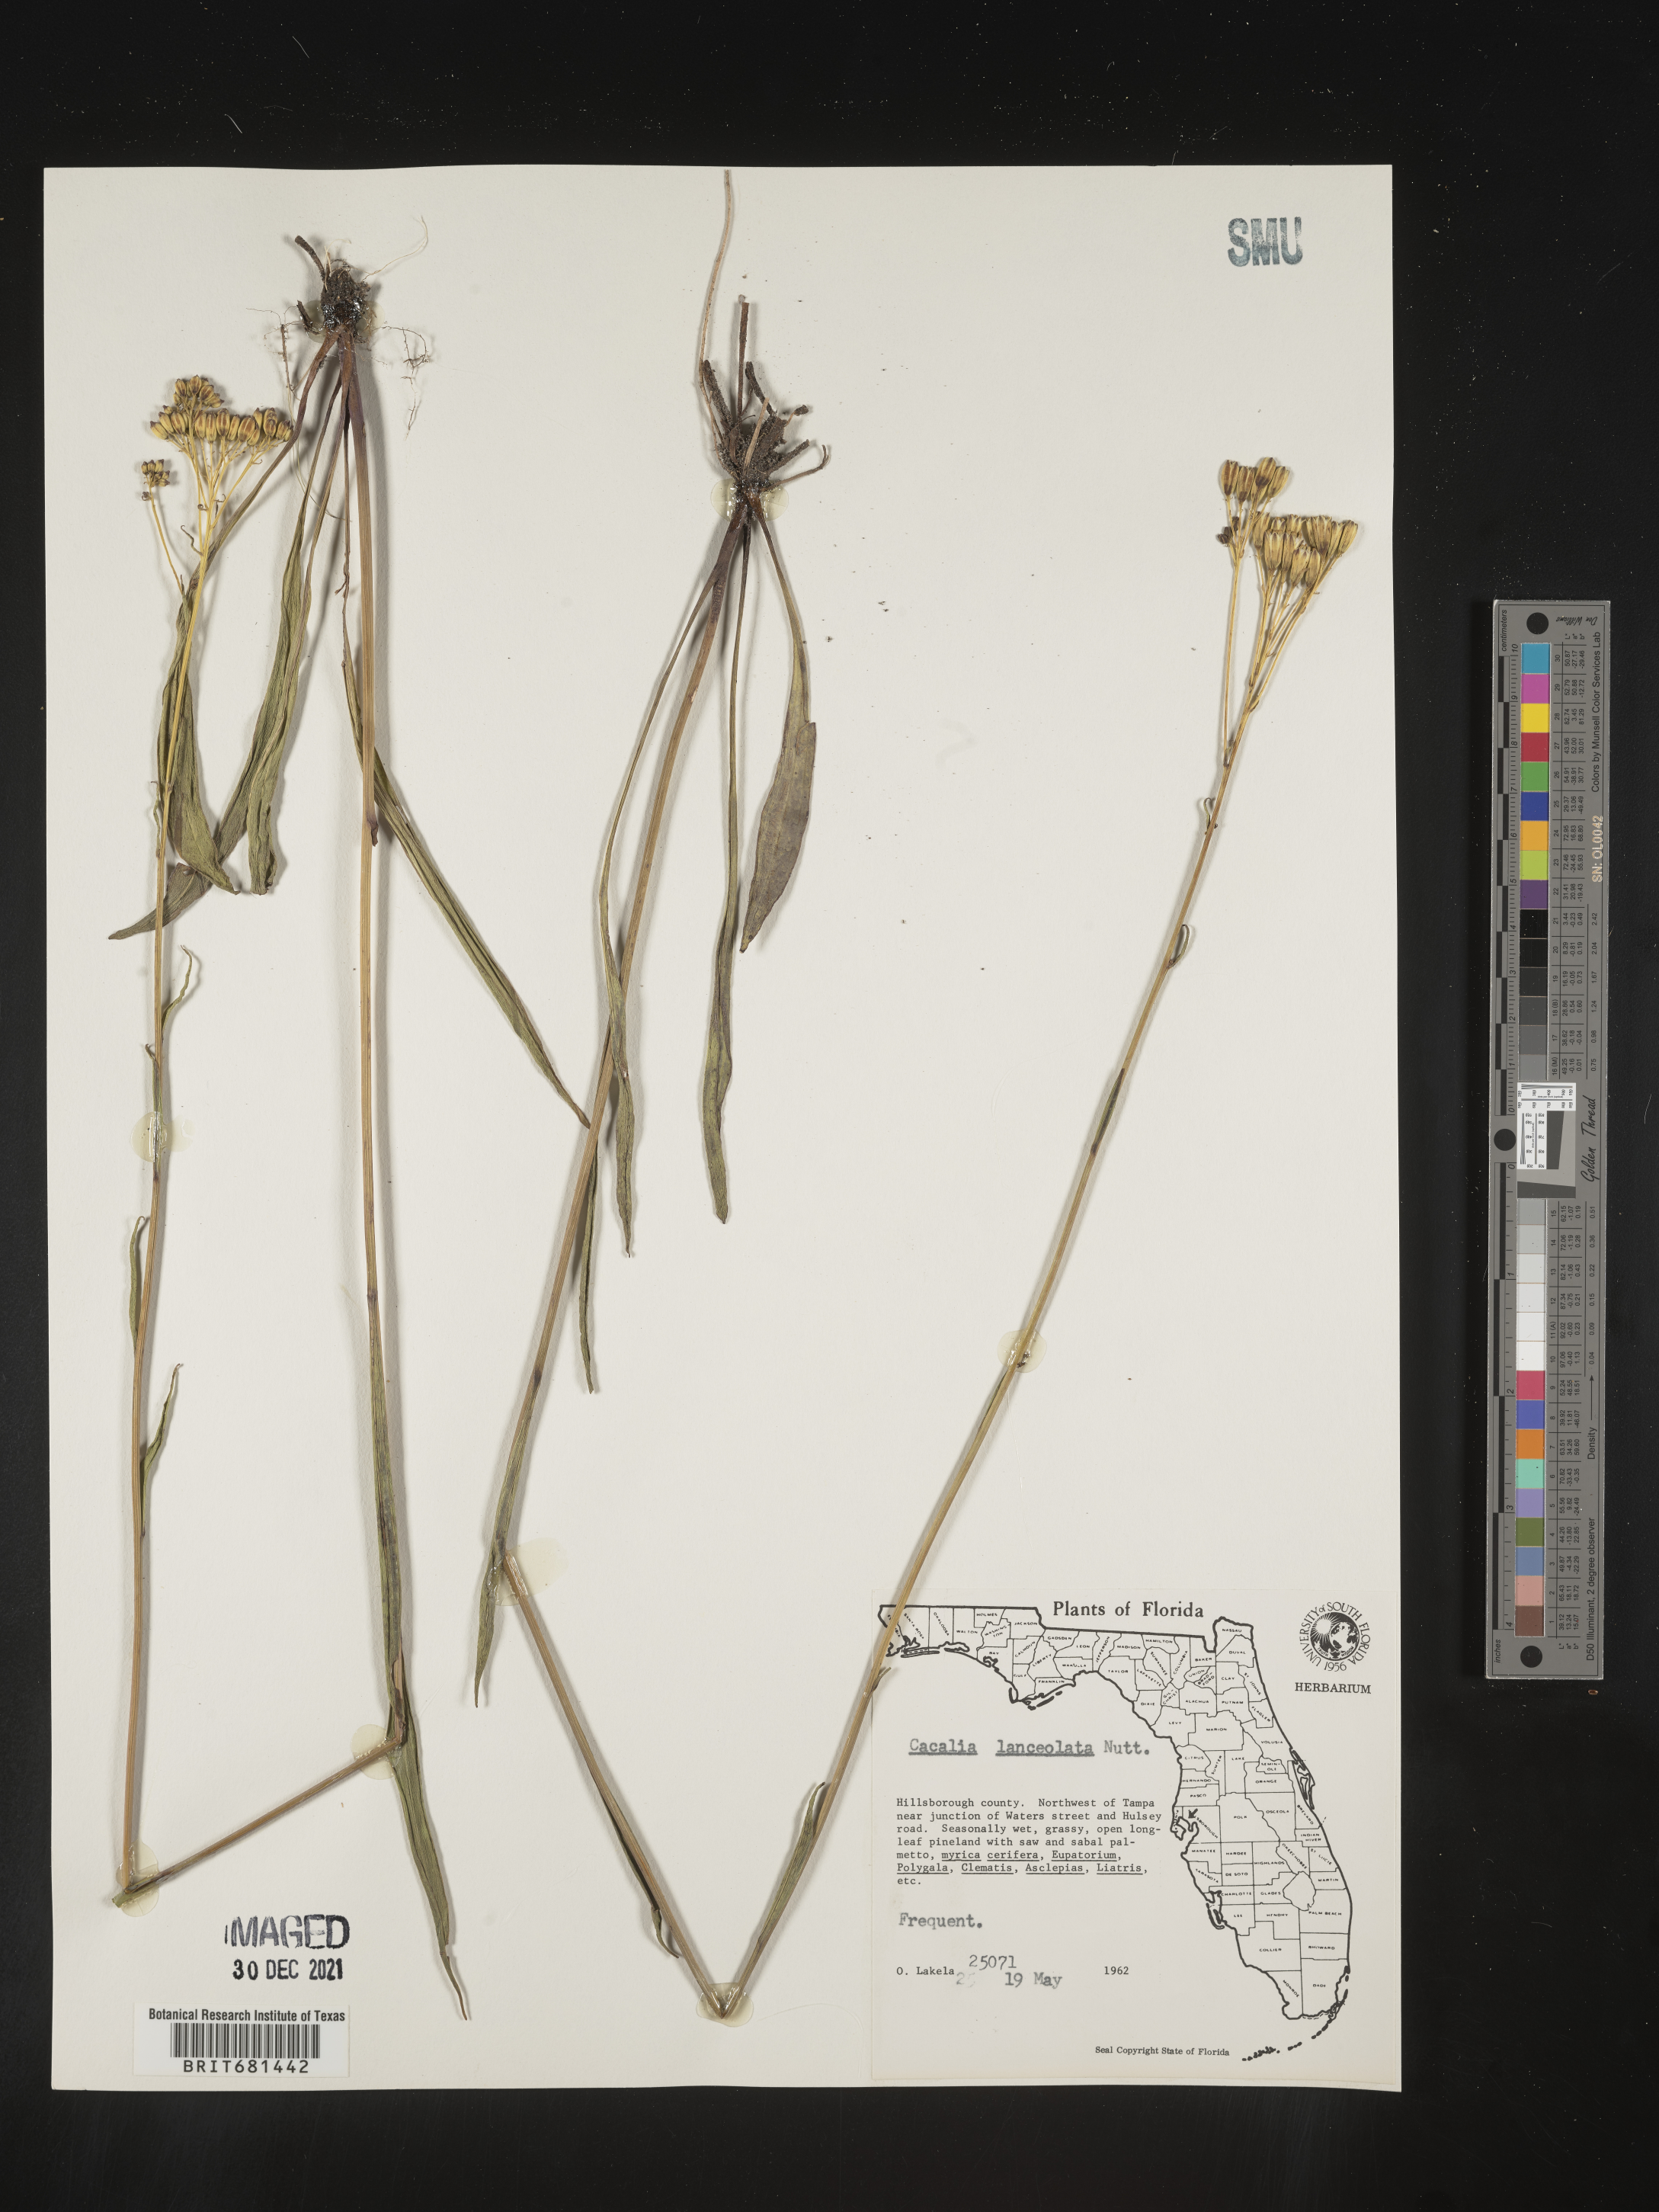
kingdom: Plantae
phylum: Tracheophyta
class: Magnoliopsida
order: Asterales
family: Asteraceae
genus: Arnoglossum
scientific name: Arnoglossum ovatum
